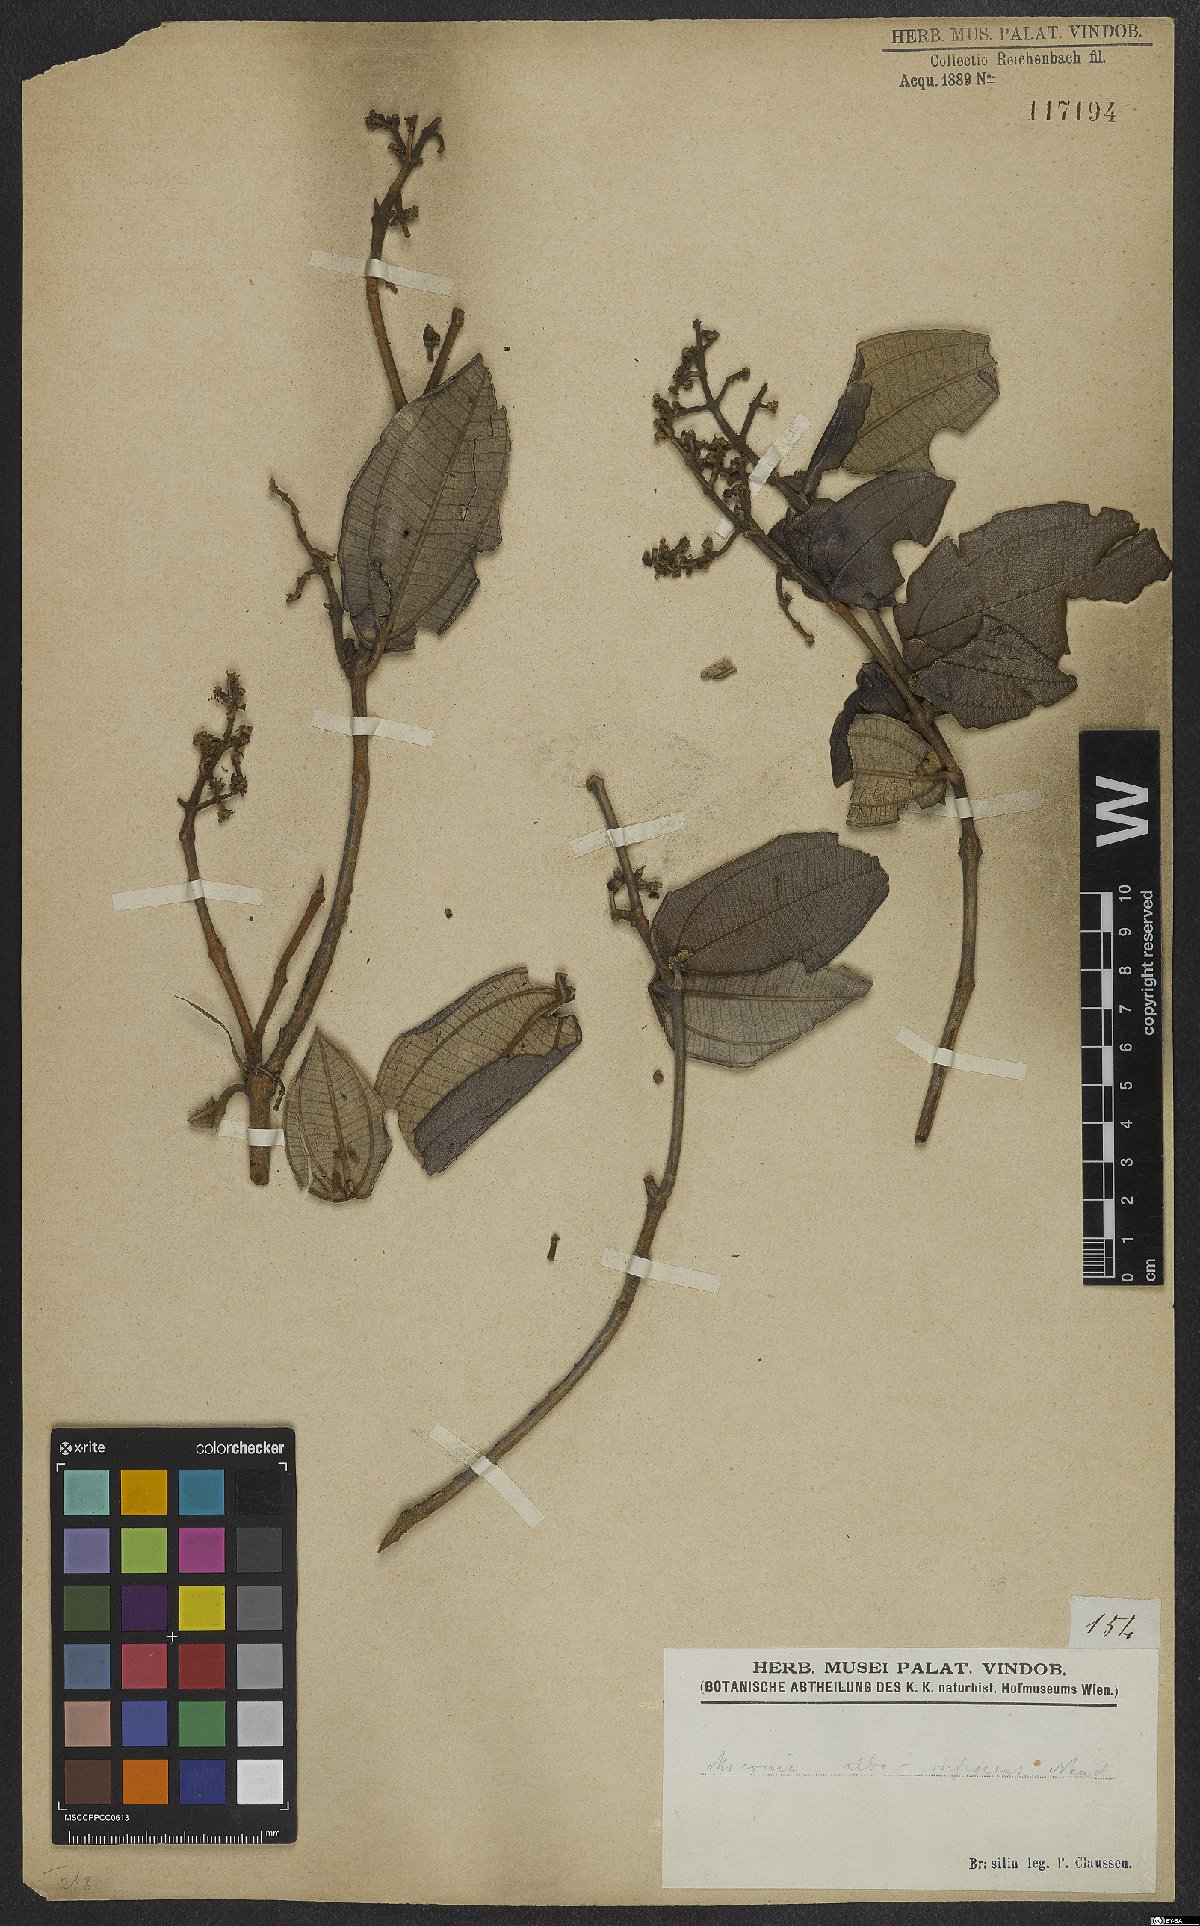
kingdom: Plantae
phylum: Tracheophyta
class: Magnoliopsida
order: Myrtales
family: Melastomataceae
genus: Miconia
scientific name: Miconia alborufescens
